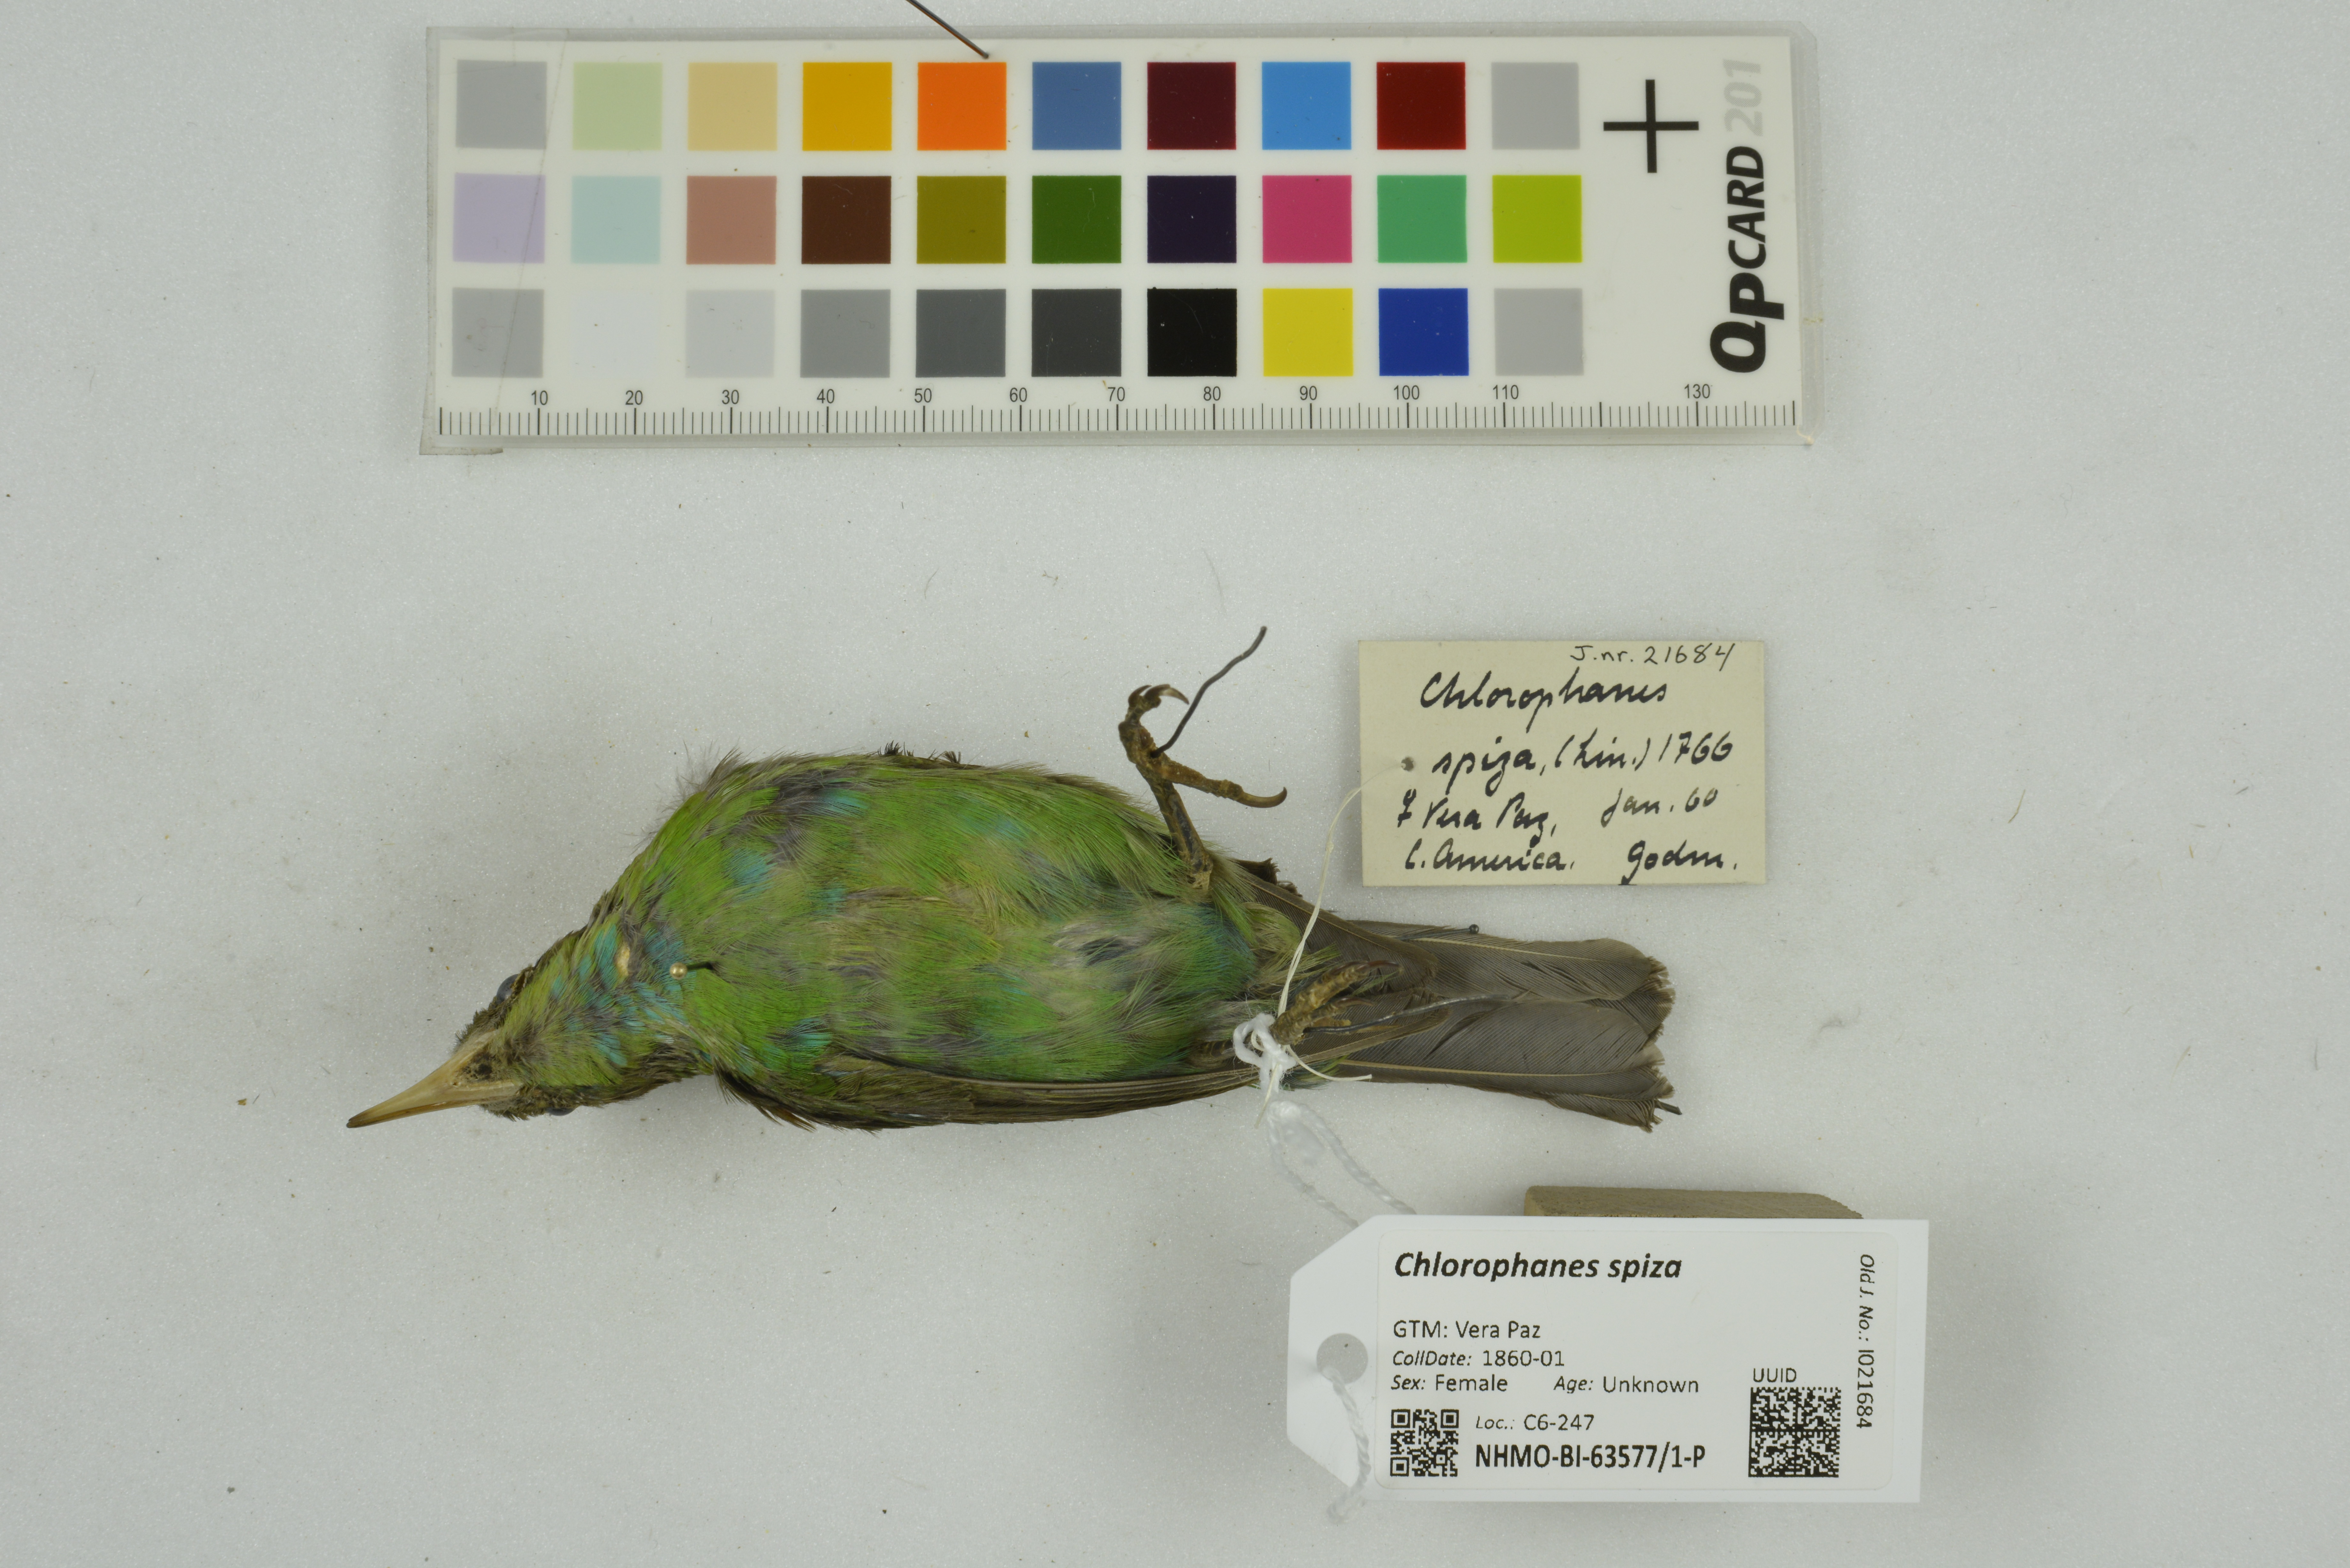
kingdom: Animalia
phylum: Chordata
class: Aves
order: Passeriformes
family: Thraupidae
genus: Chlorophanes
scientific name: Chlorophanes spiza
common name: Green honeycreeper
